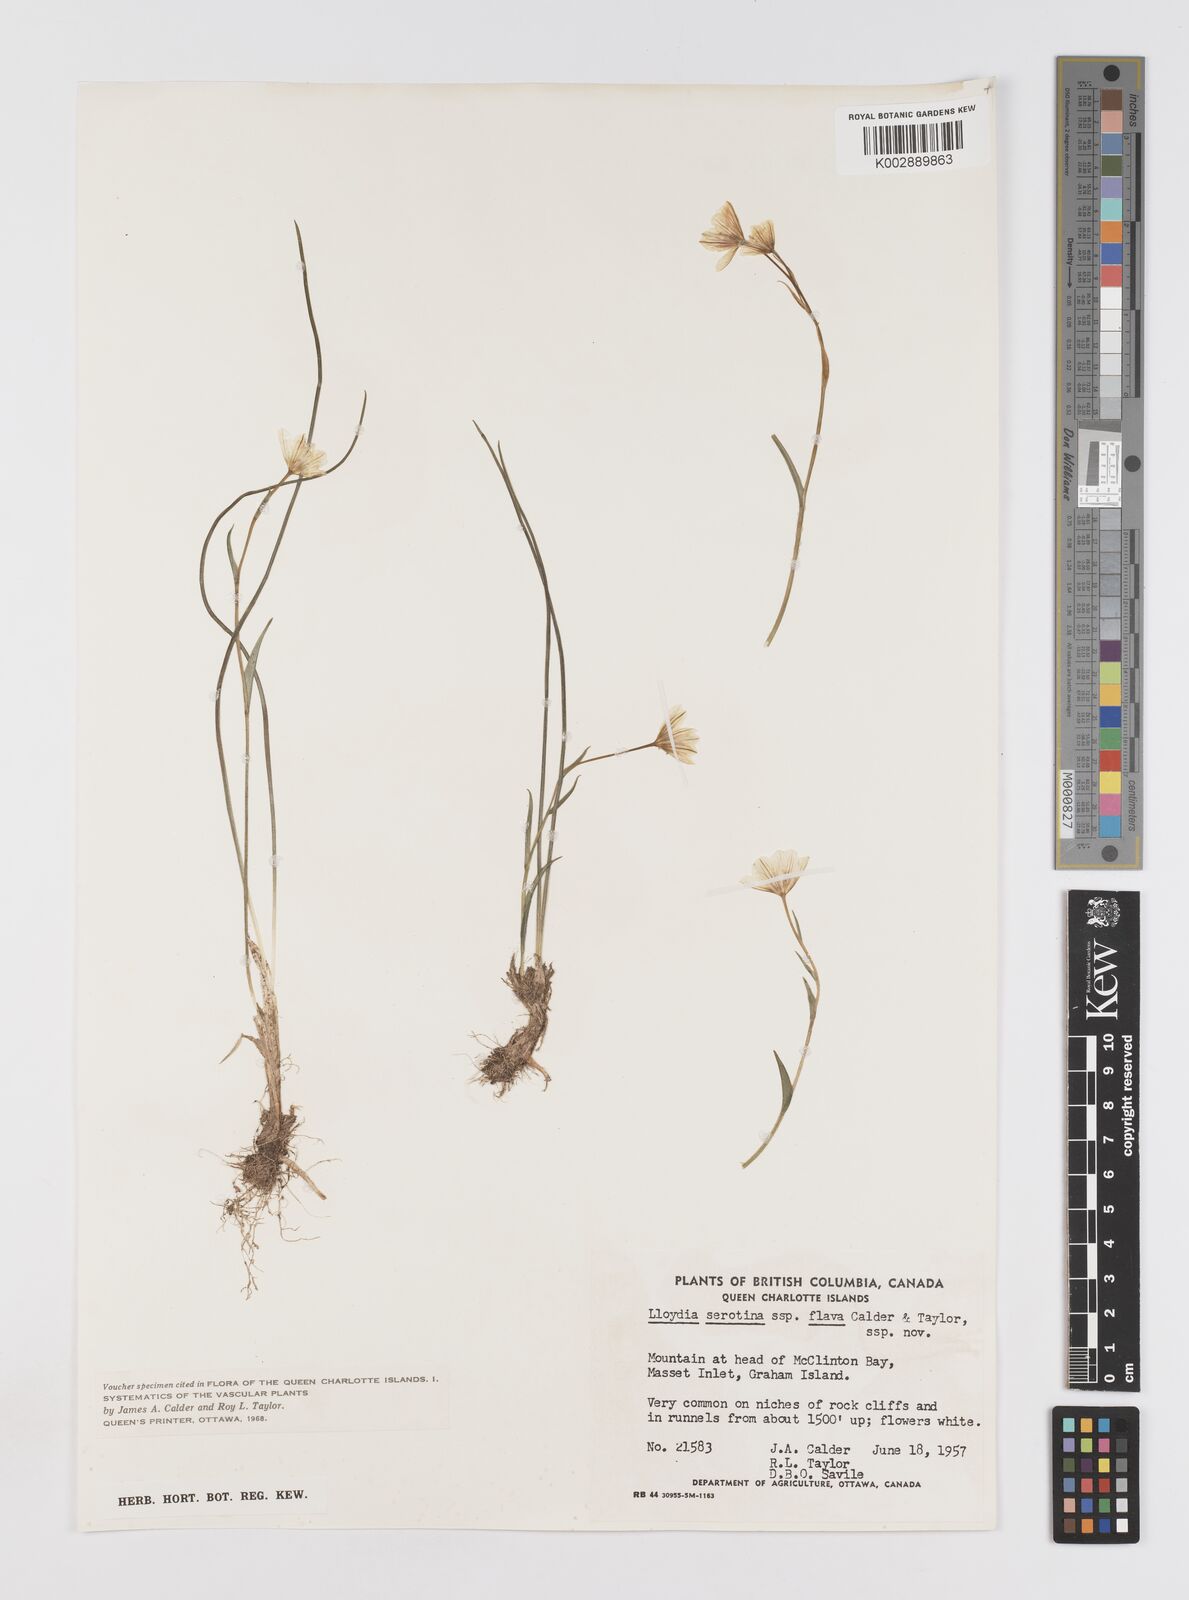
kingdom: Plantae
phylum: Tracheophyta
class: Liliopsida
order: Liliales
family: Liliaceae
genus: Gagea
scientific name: Gagea serotina
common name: Snowdon lily
